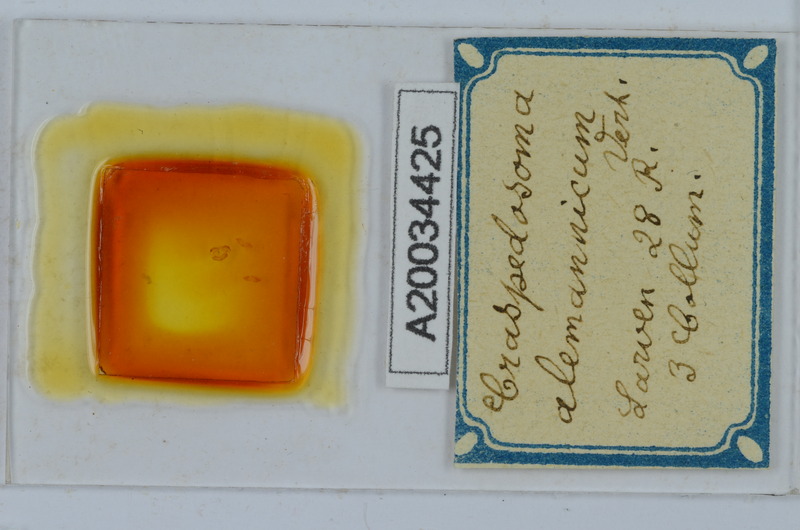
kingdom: Animalia
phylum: Arthropoda
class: Diplopoda
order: Chordeumatida
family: Craspedosomatidae
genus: Craspedosoma
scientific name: Craspedosoma alemannicum
